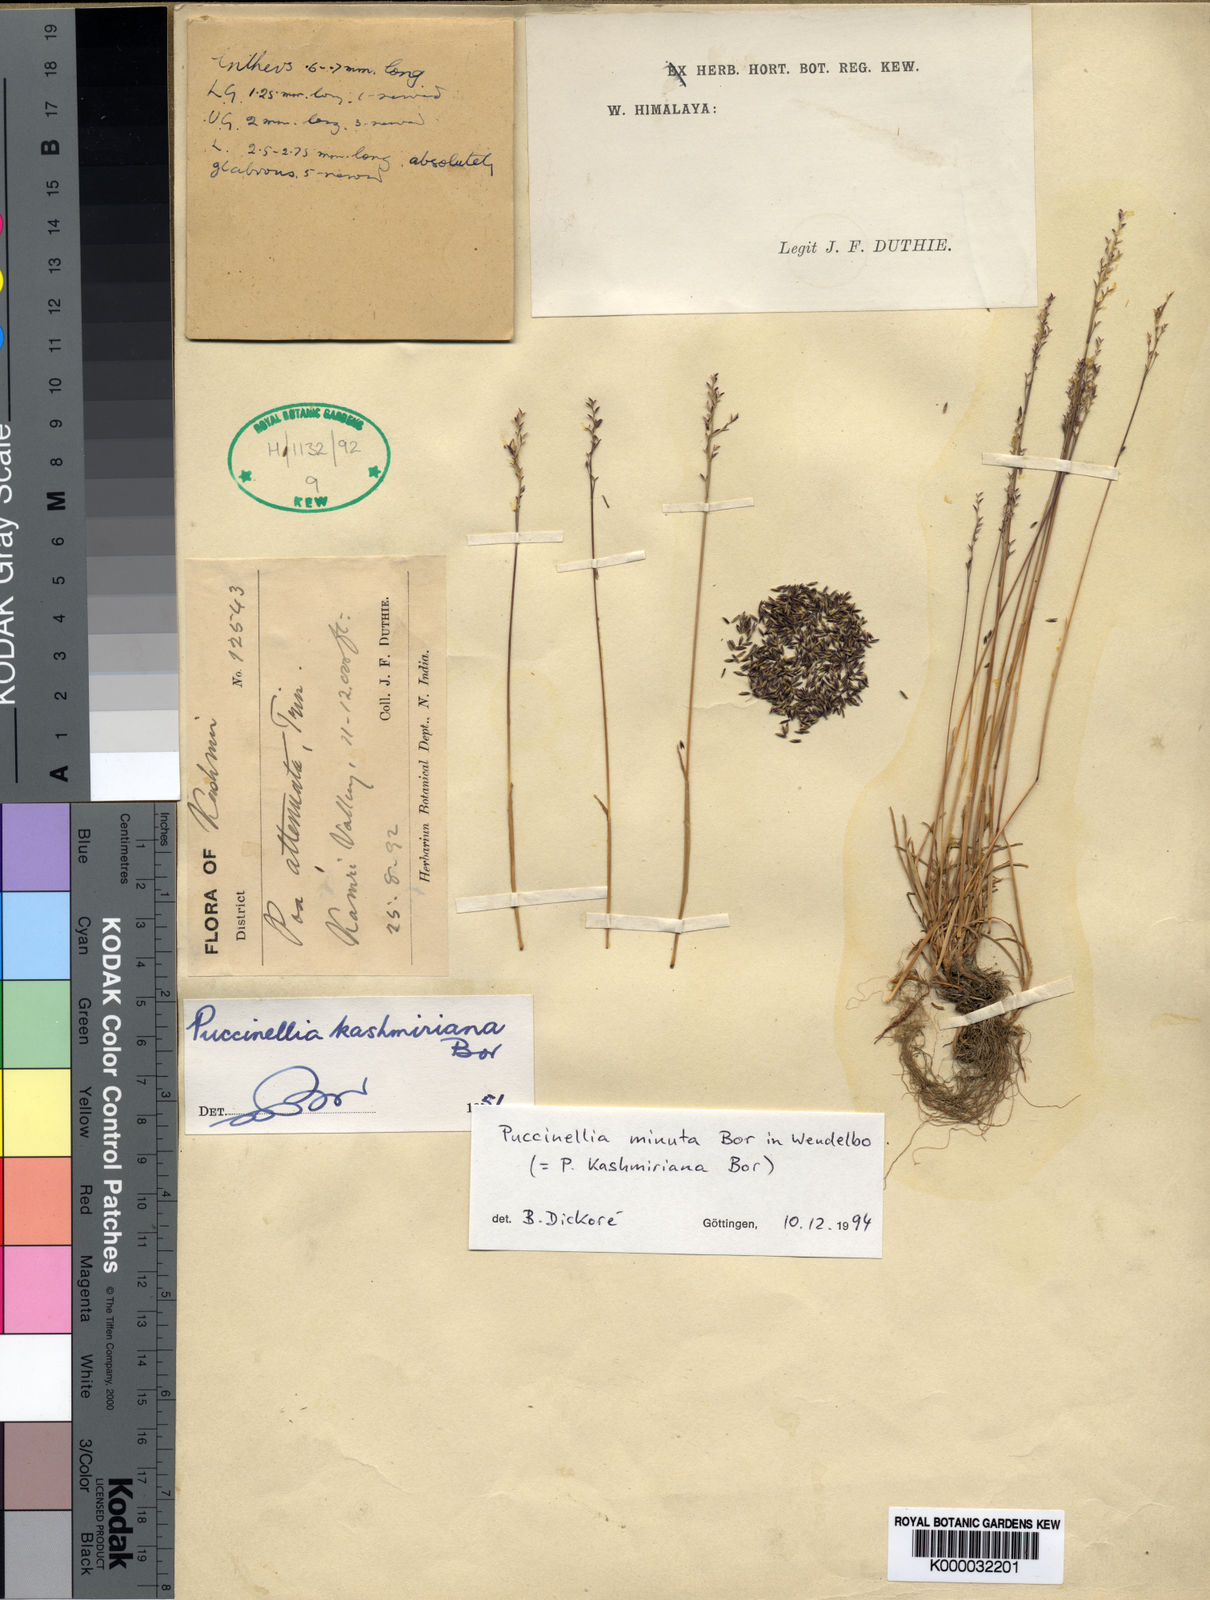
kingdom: Plantae
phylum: Tracheophyta
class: Liliopsida
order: Poales
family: Poaceae
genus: Puccinellia
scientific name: Puccinellia kashmiriana
